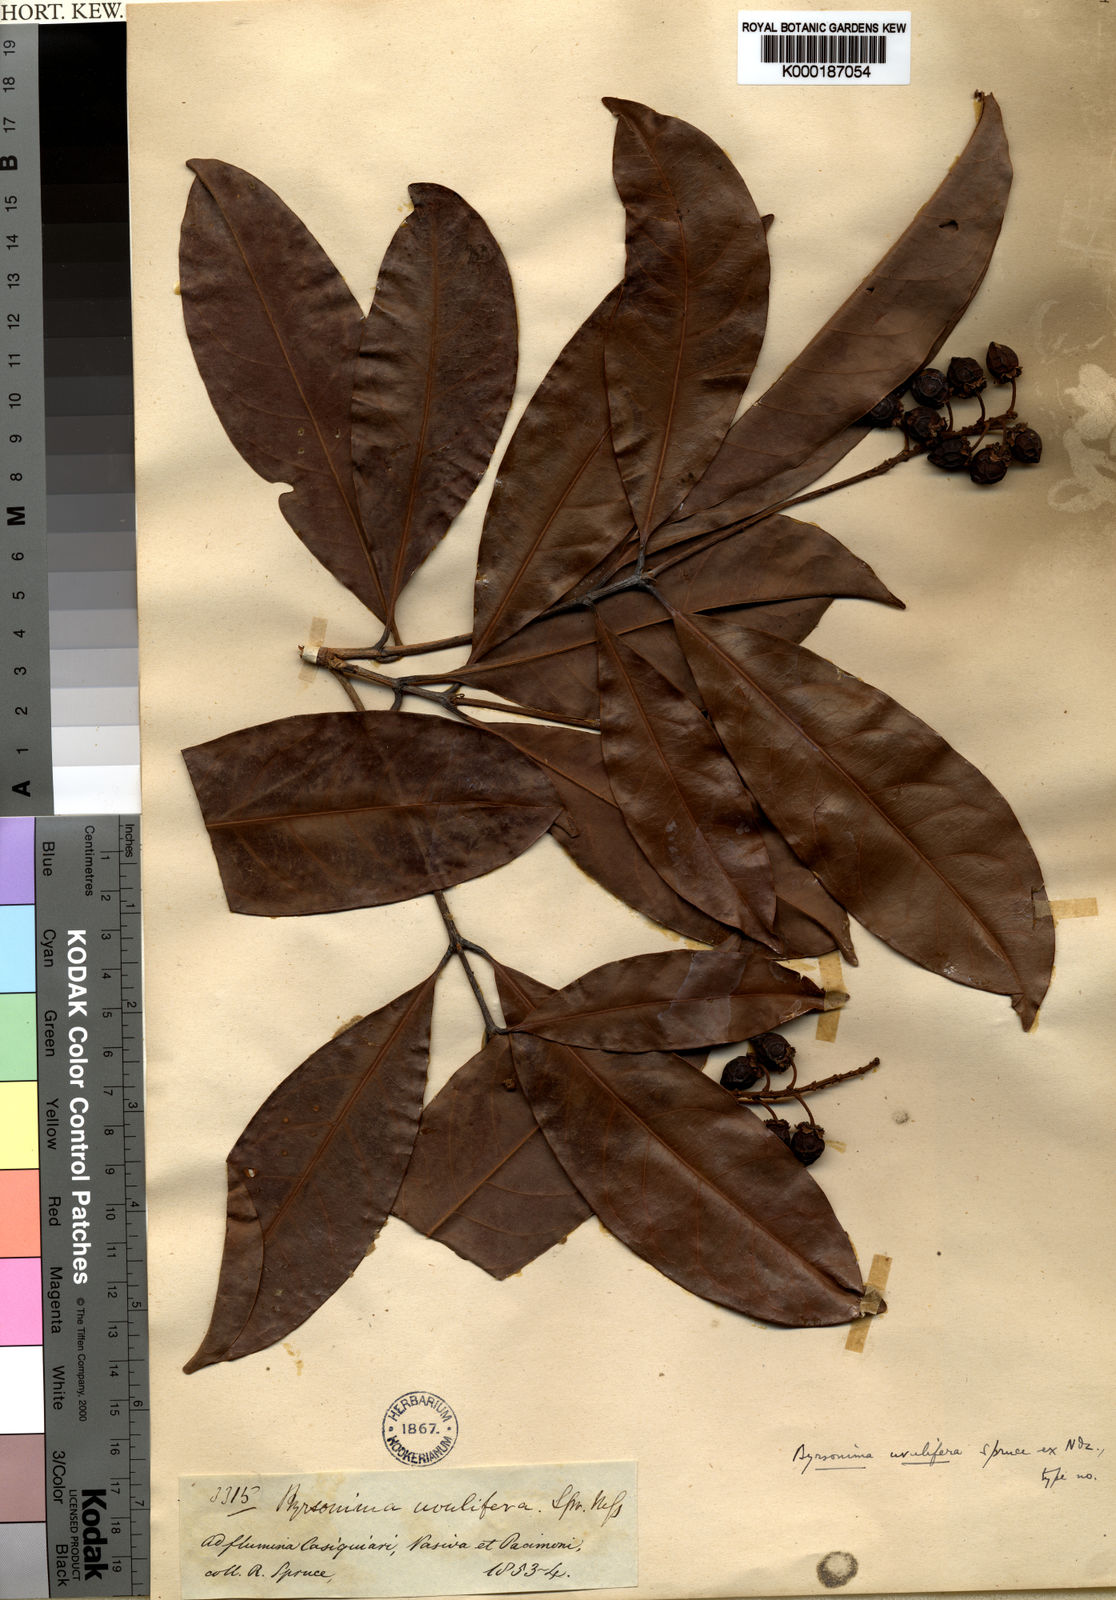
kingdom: Plantae
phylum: Tracheophyta
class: Magnoliopsida
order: Malpighiales
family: Malpighiaceae
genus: Byrsonima
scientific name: Byrsonima
